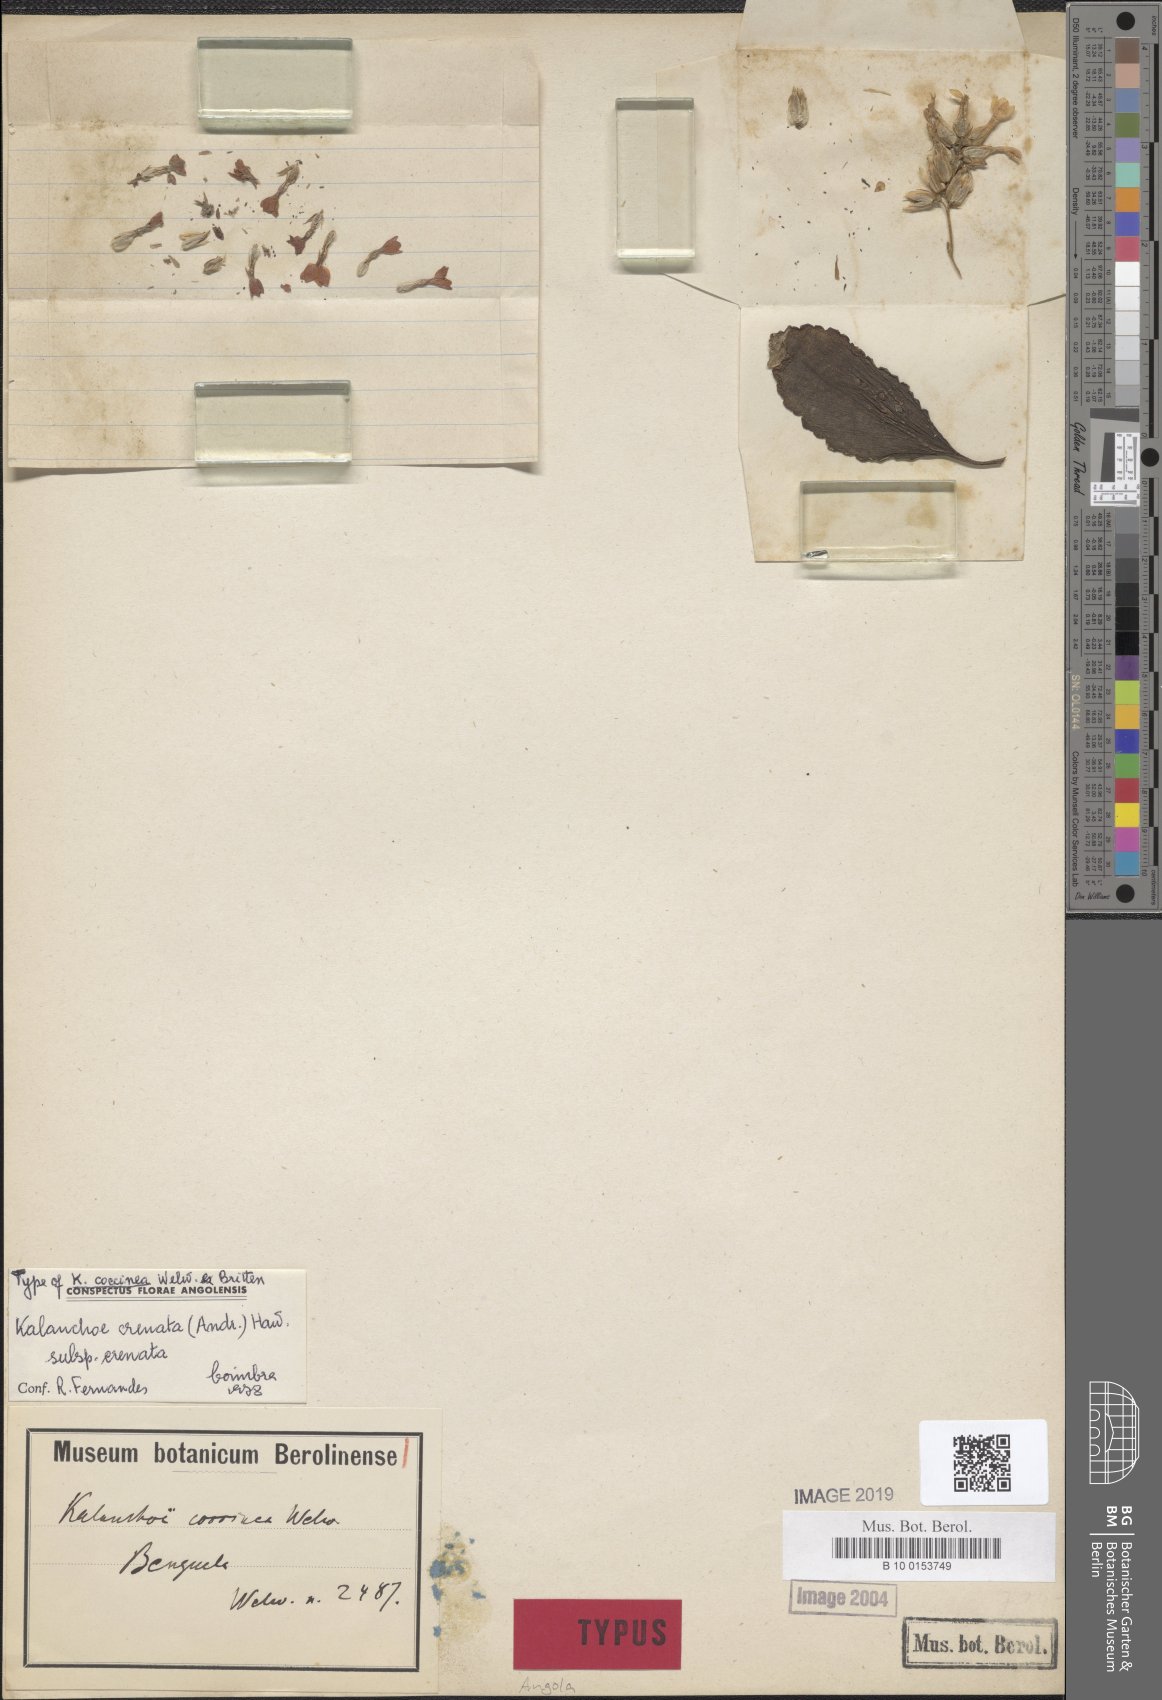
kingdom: Plantae
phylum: Tracheophyta
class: Magnoliopsida
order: Saxifragales
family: Crassulaceae
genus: Kalanchoe
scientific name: Kalanchoe crenata
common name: Neverdie
